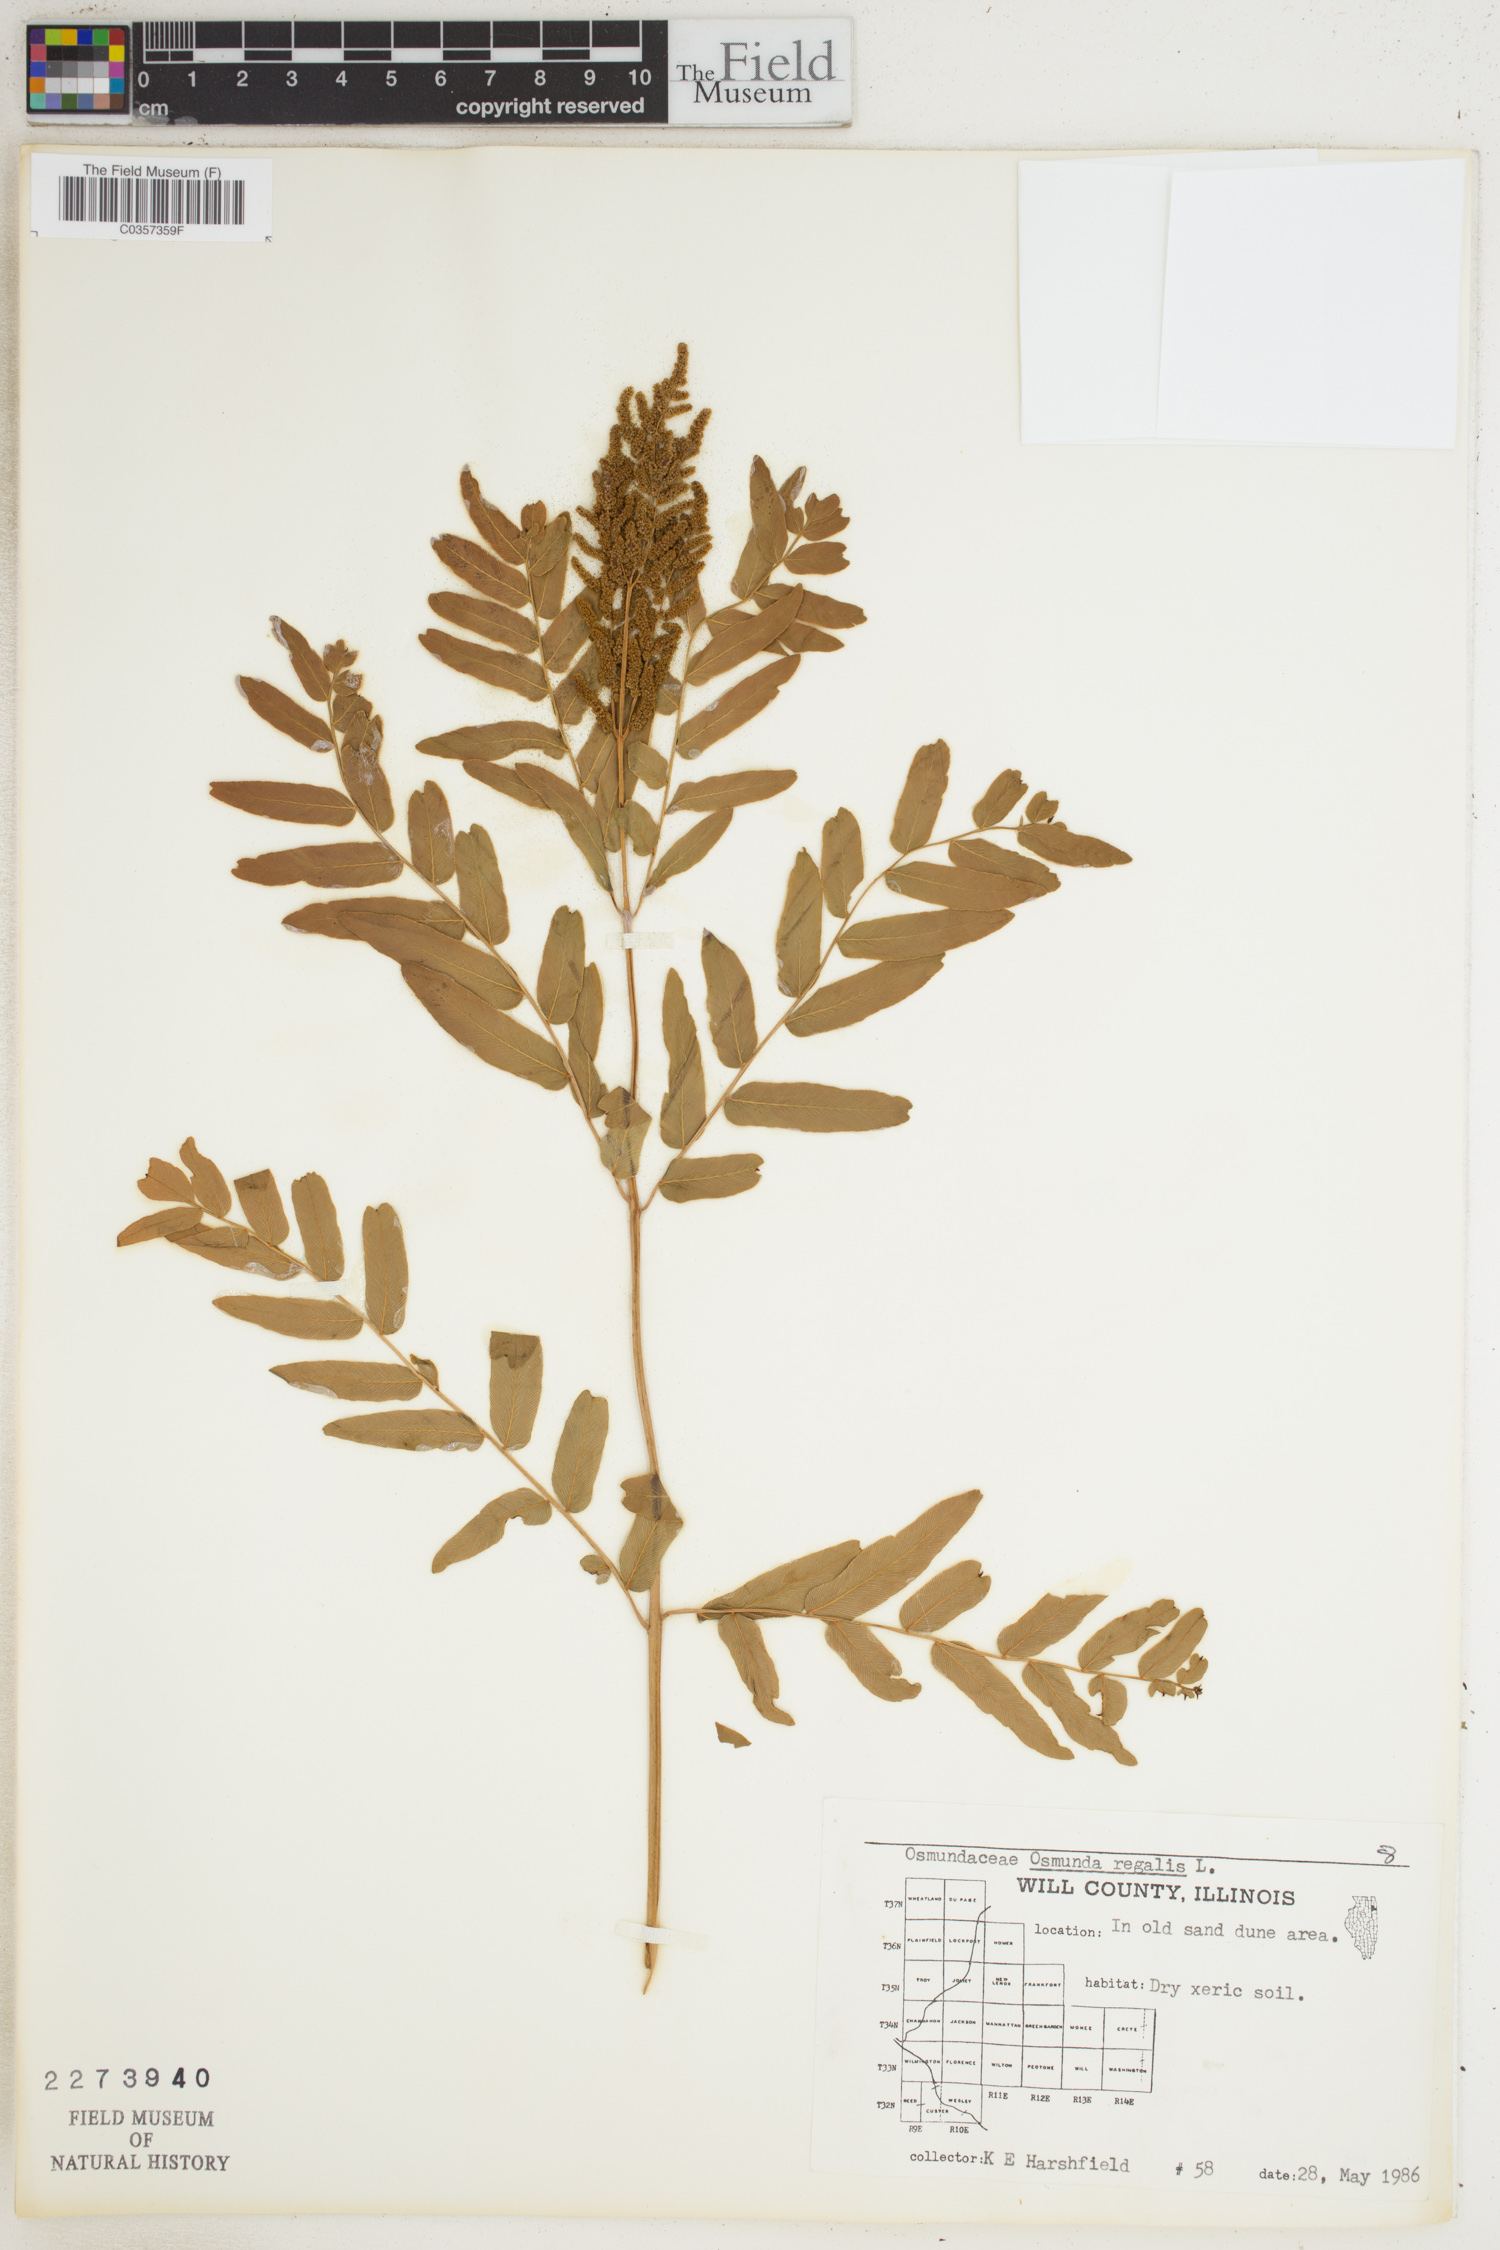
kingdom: Plantae
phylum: Tracheophyta
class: Polypodiopsida
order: Osmundales
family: Osmundaceae
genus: Osmunda
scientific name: Osmunda regalis
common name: Royal fern
